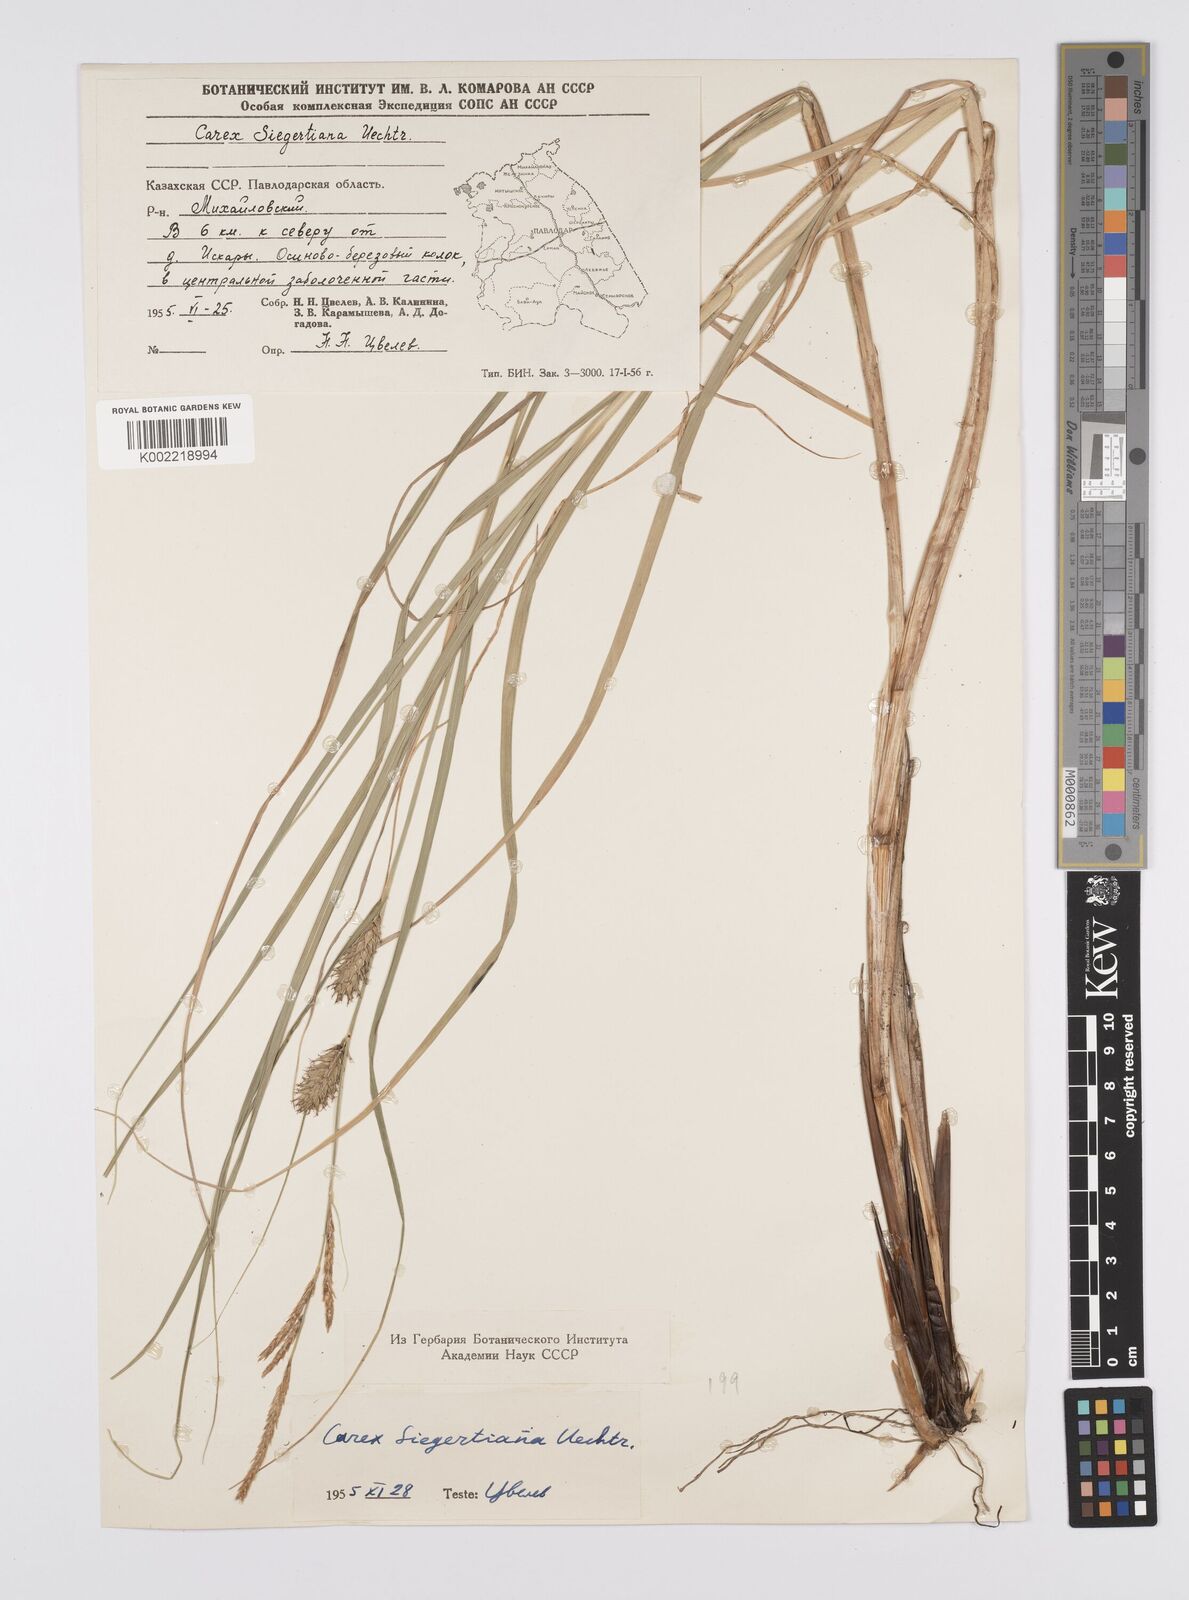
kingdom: Plantae
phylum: Tracheophyta
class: Liliopsida
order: Poales
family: Cyperaceae
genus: Carex
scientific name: Carex
